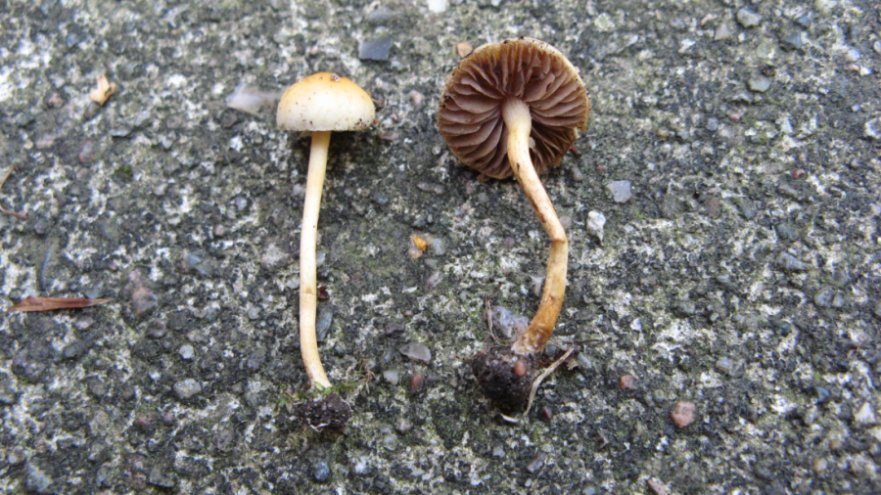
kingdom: Fungi
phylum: Basidiomycota
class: Agaricomycetes
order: Agaricales
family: Strophariaceae
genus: Agrocybe
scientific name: Agrocybe pediades
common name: almindelig agerhat
